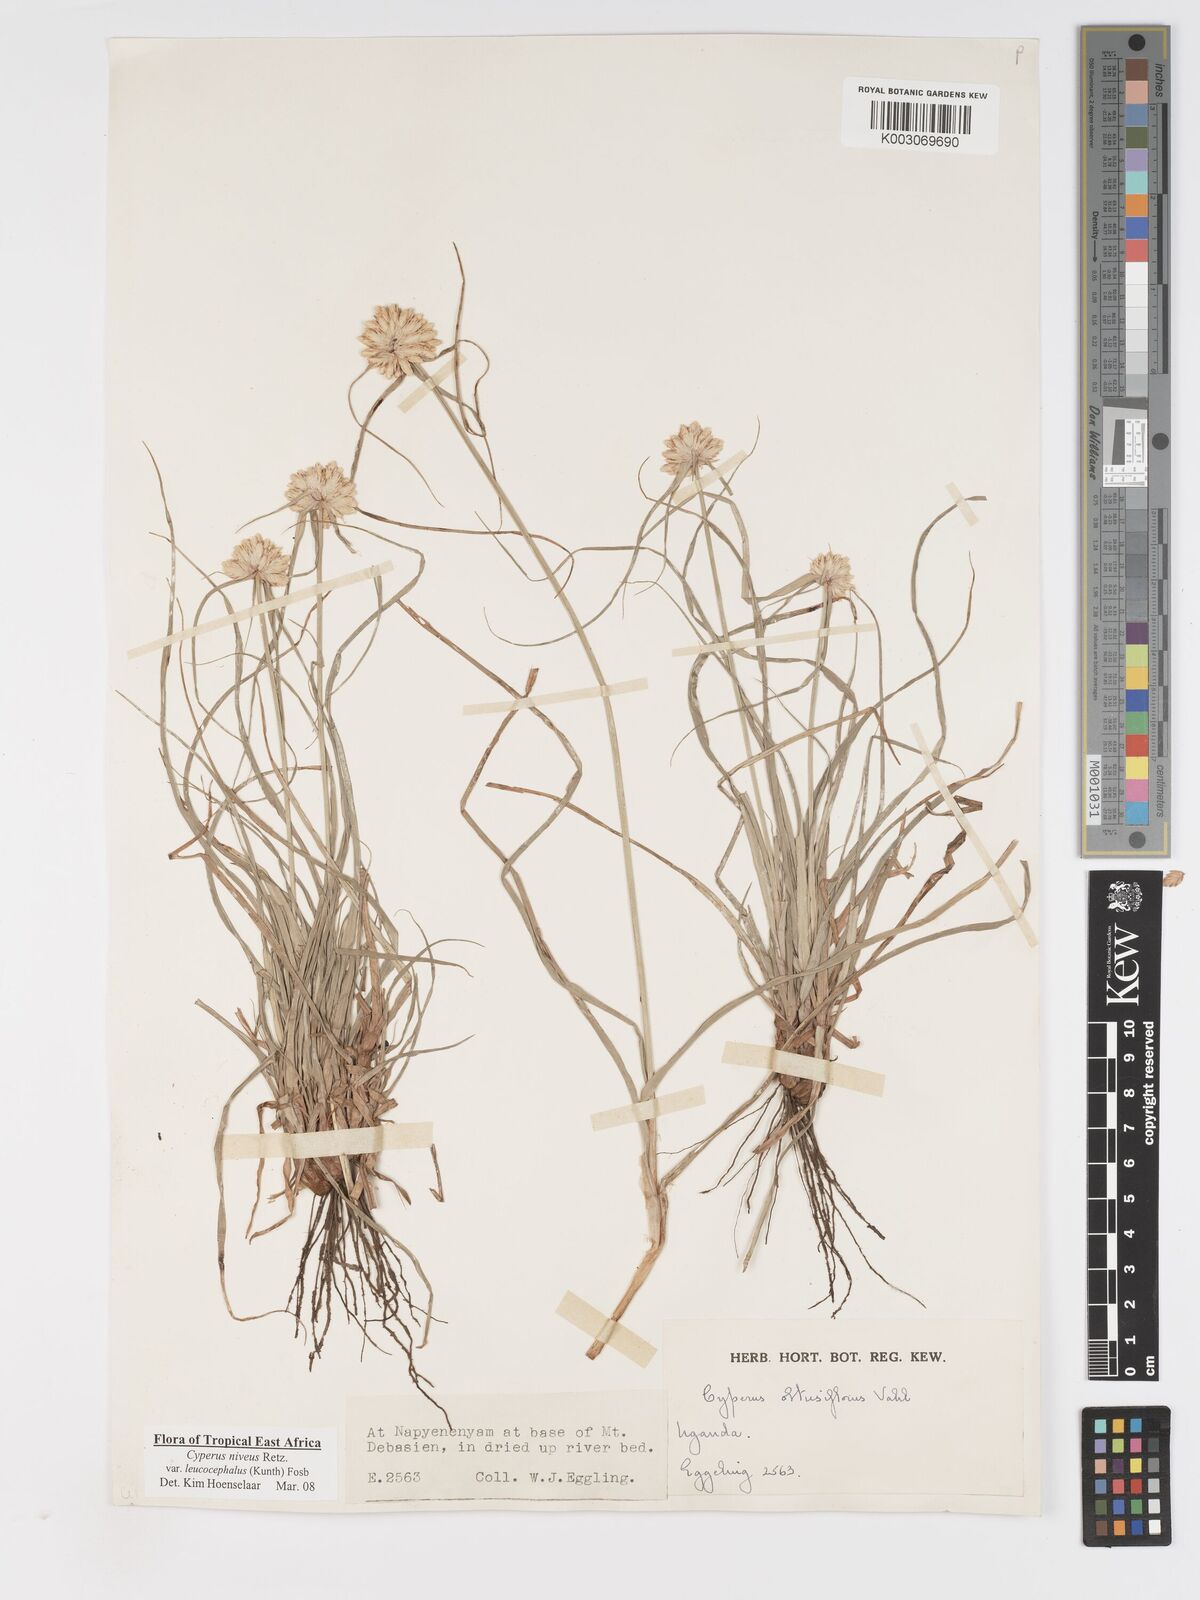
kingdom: Plantae
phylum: Tracheophyta
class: Liliopsida
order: Poales
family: Cyperaceae
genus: Cyperus
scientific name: Cyperus niveus
